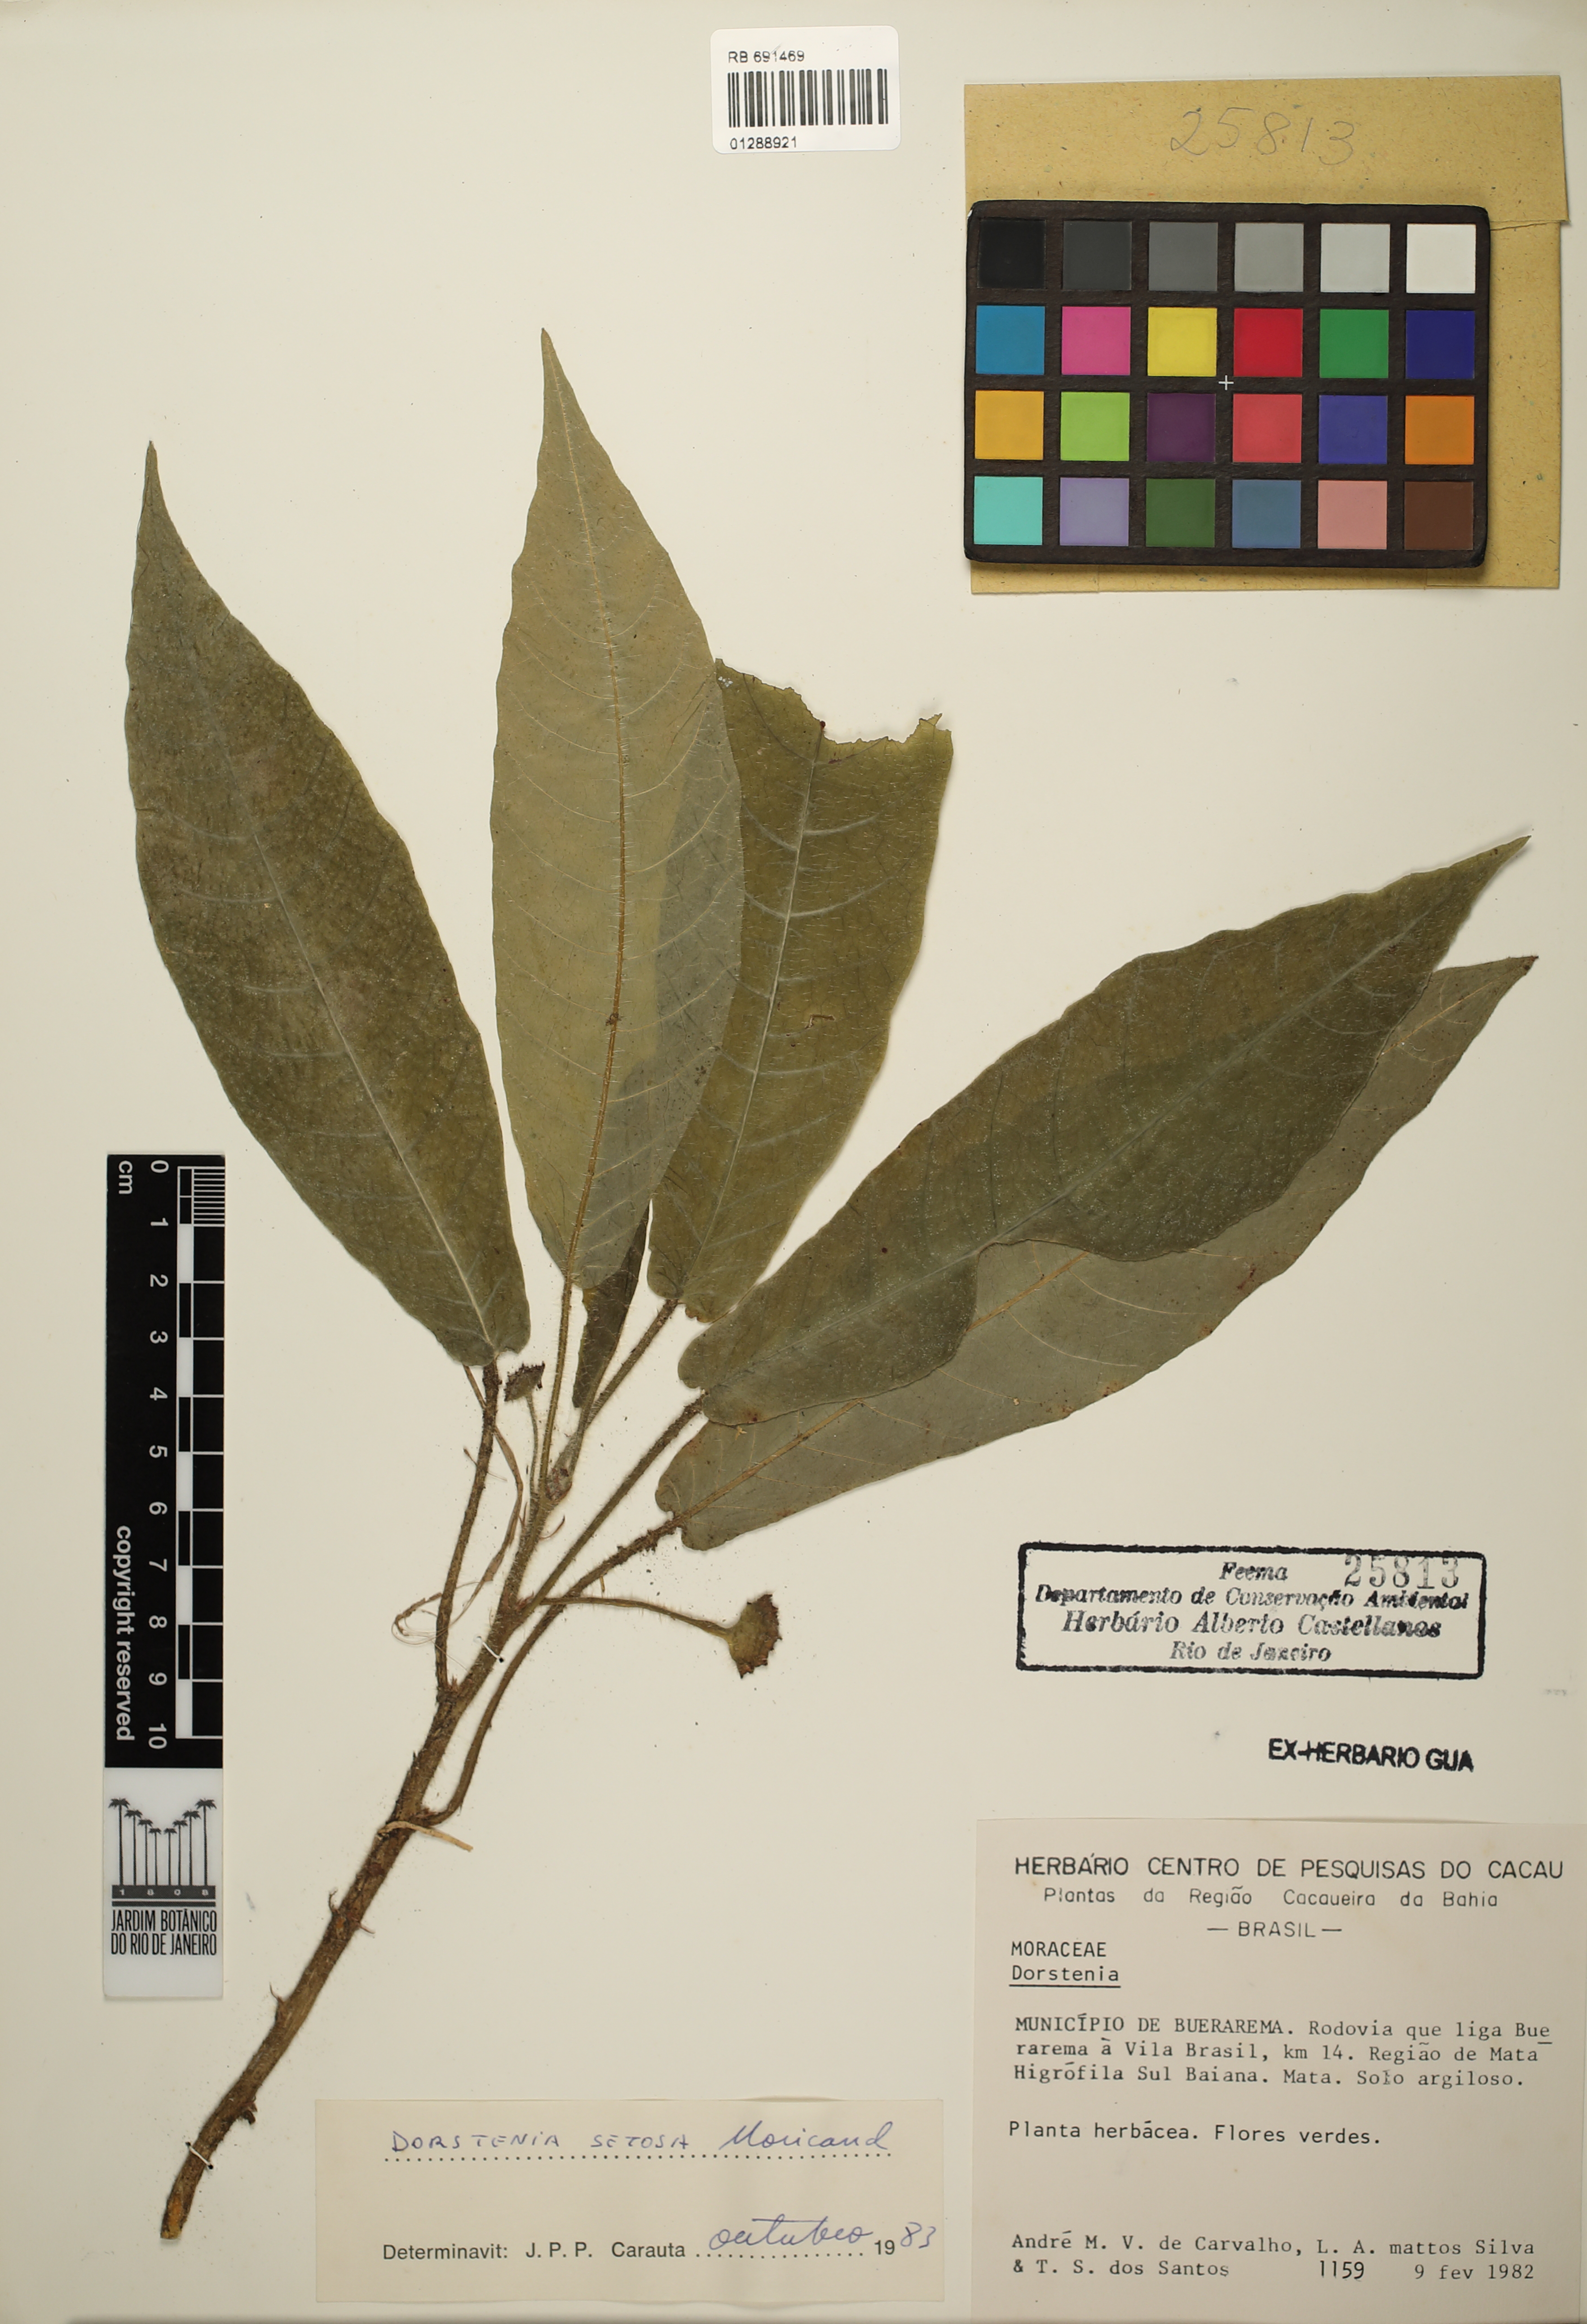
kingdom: Plantae
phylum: Tracheophyta
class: Magnoliopsida
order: Rosales
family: Moraceae
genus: Dorstenia
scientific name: Dorstenia setosa
